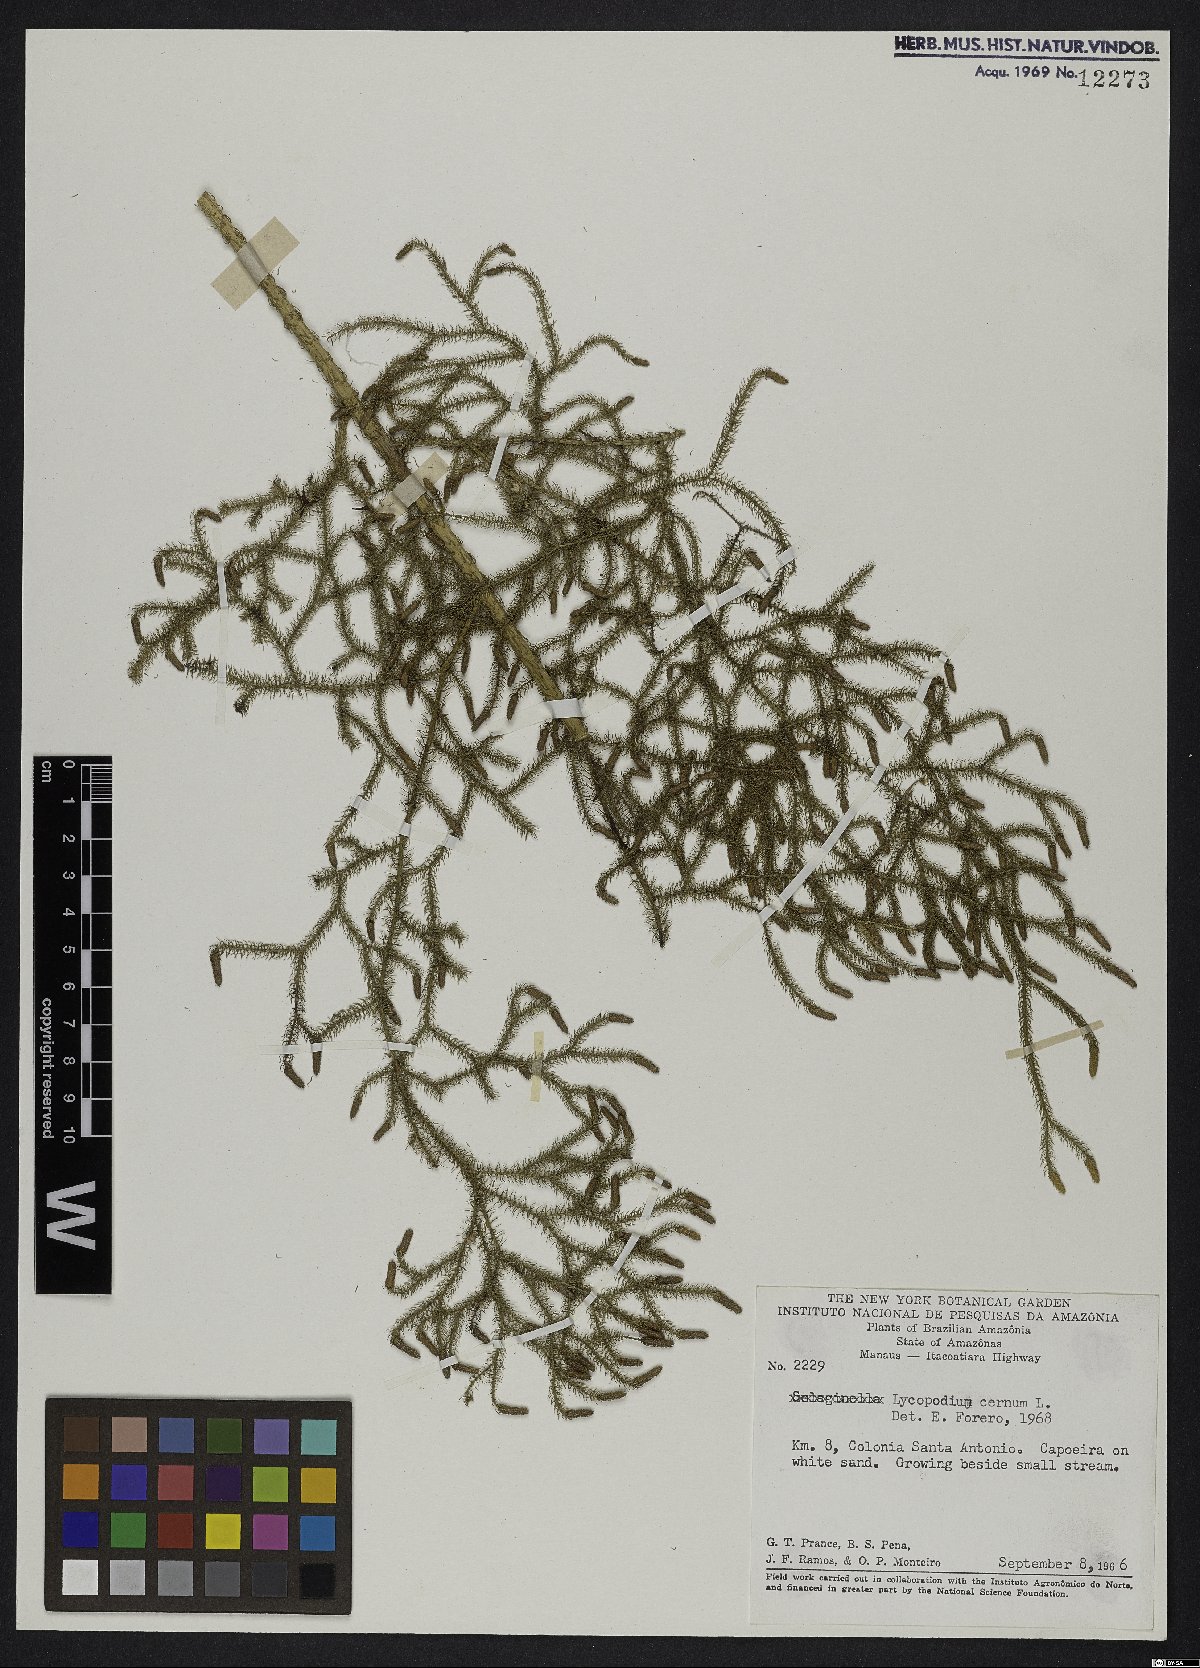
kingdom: Plantae
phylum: Tracheophyta
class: Lycopodiopsida
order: Lycopodiales
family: Lycopodiaceae
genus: Palhinhaea
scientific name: Palhinhaea cernua
